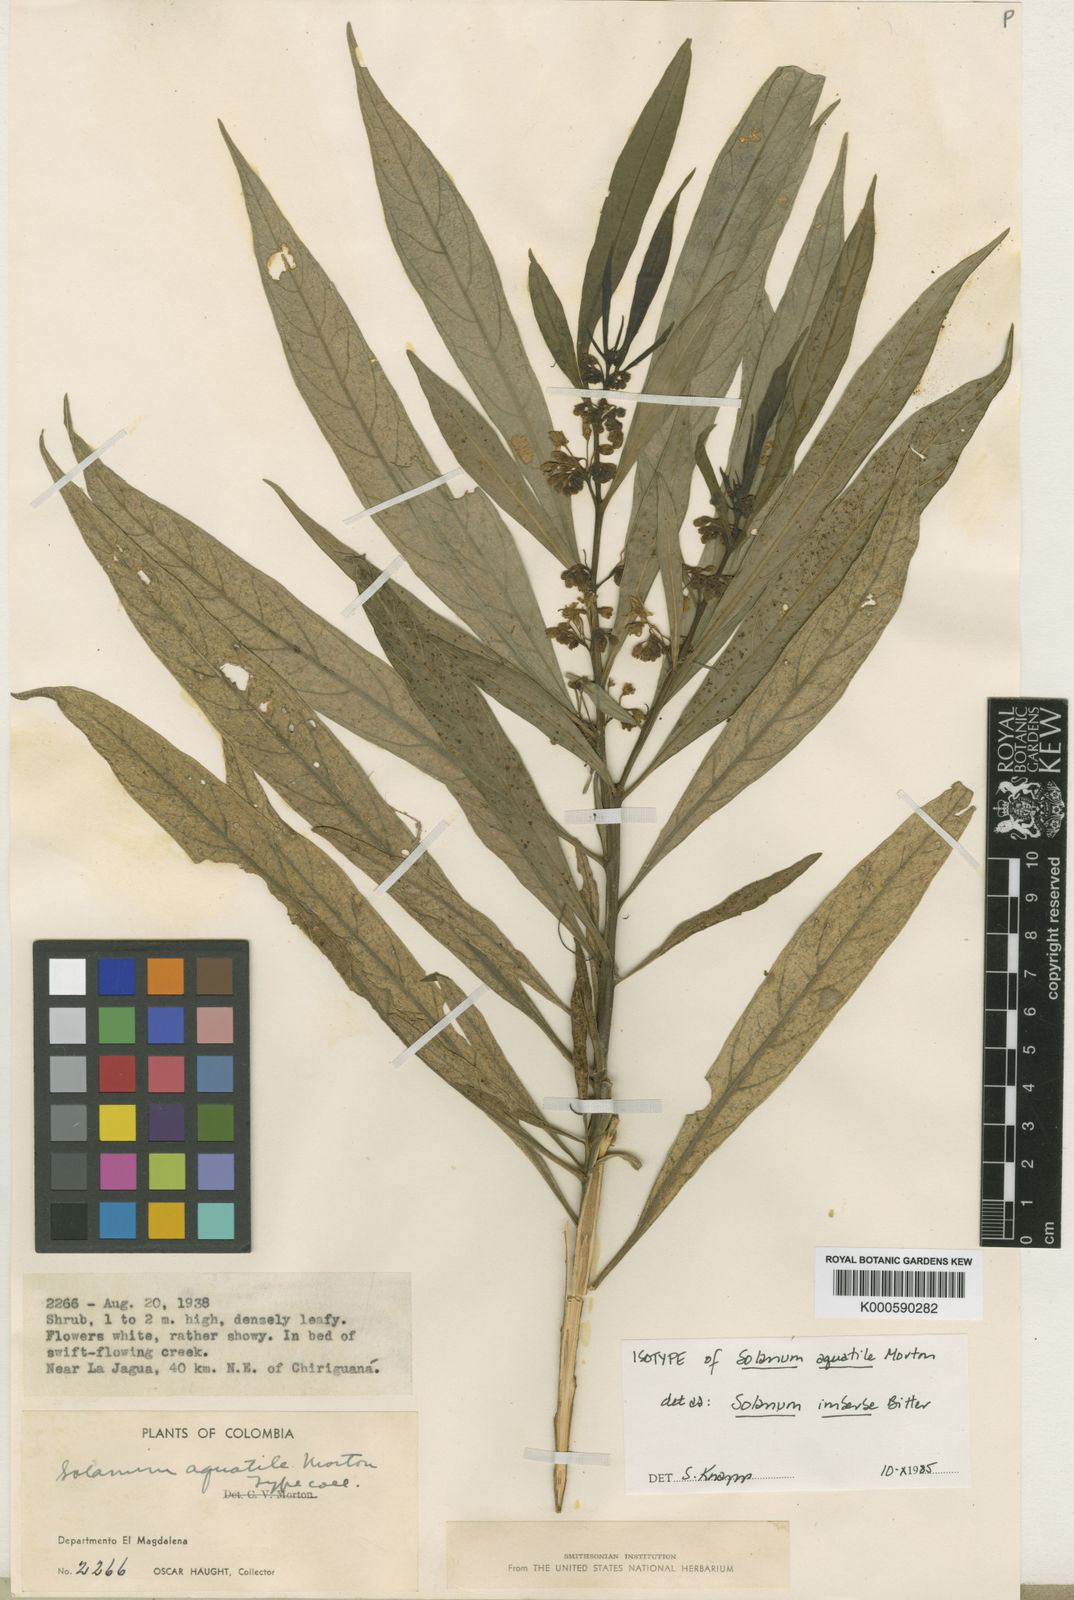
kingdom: Plantae
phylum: Tracheophyta
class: Magnoliopsida
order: Solanales
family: Solanaceae
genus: Solanum
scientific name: Solanum imberbe
